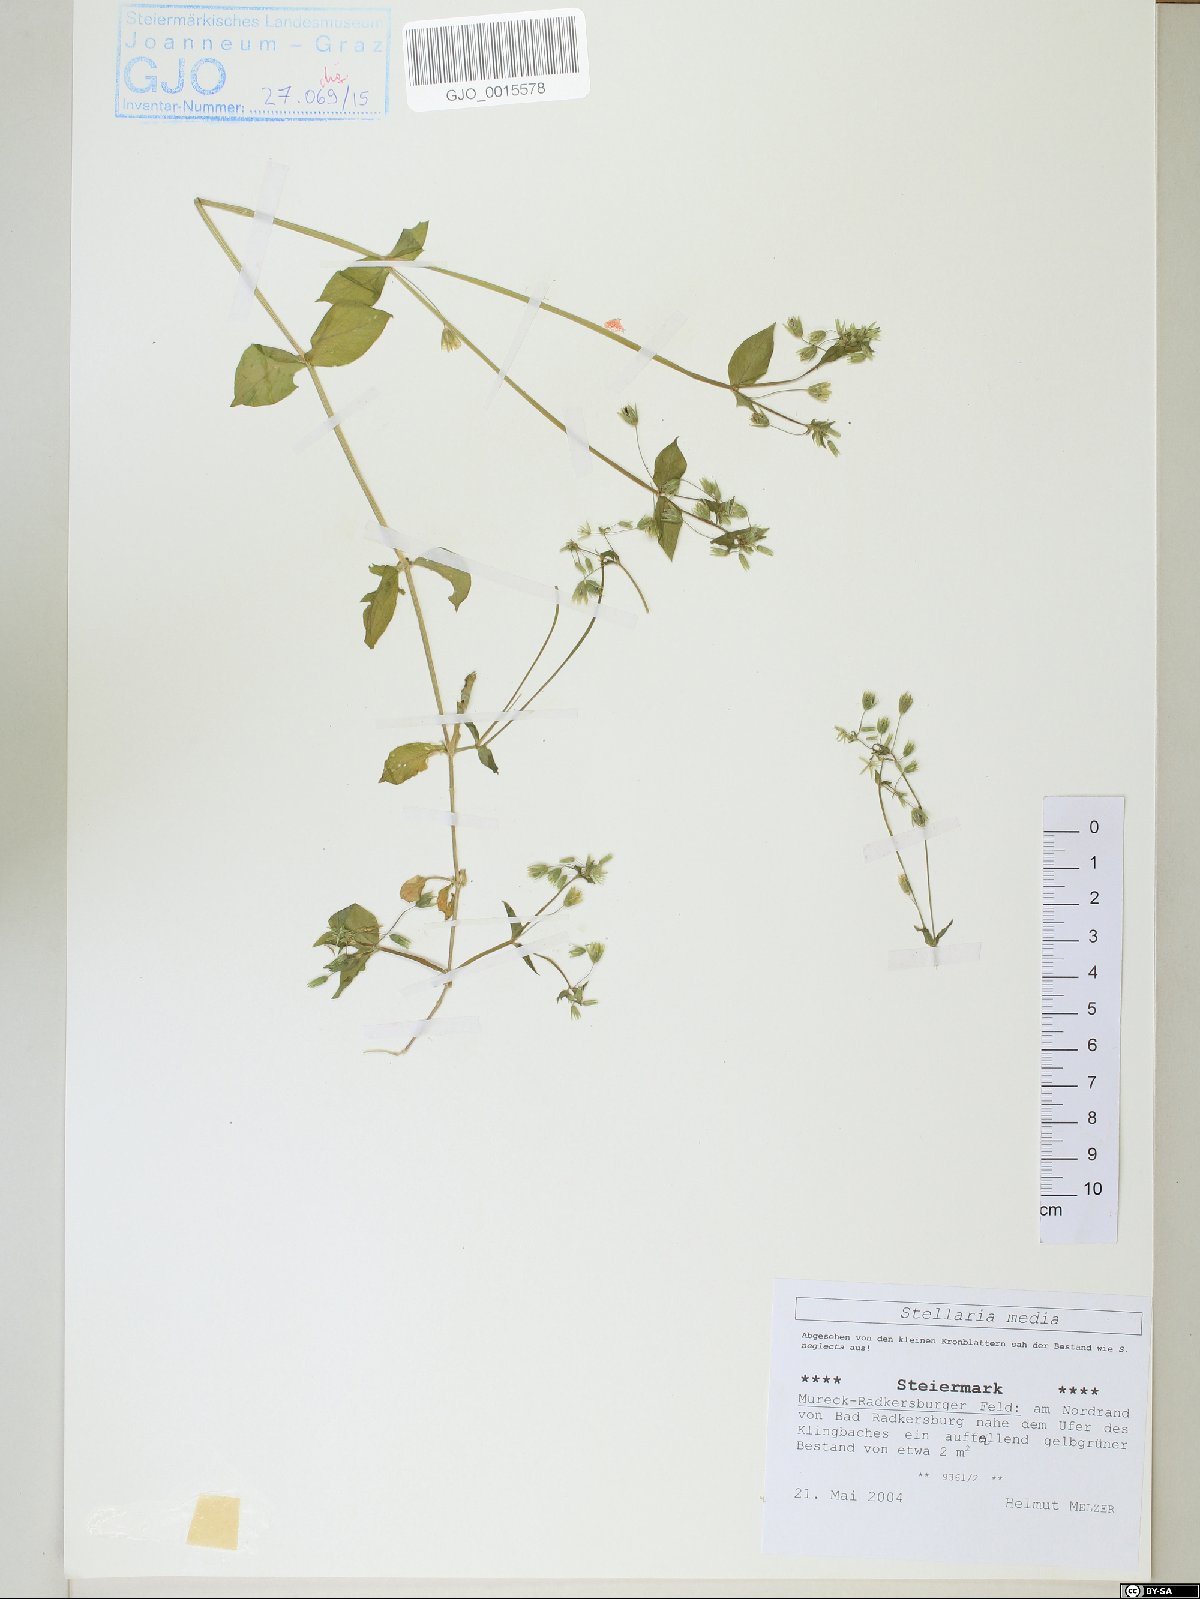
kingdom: Plantae
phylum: Tracheophyta
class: Magnoliopsida
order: Caryophyllales
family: Caryophyllaceae
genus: Stellaria
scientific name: Stellaria media
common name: Common chickweed
